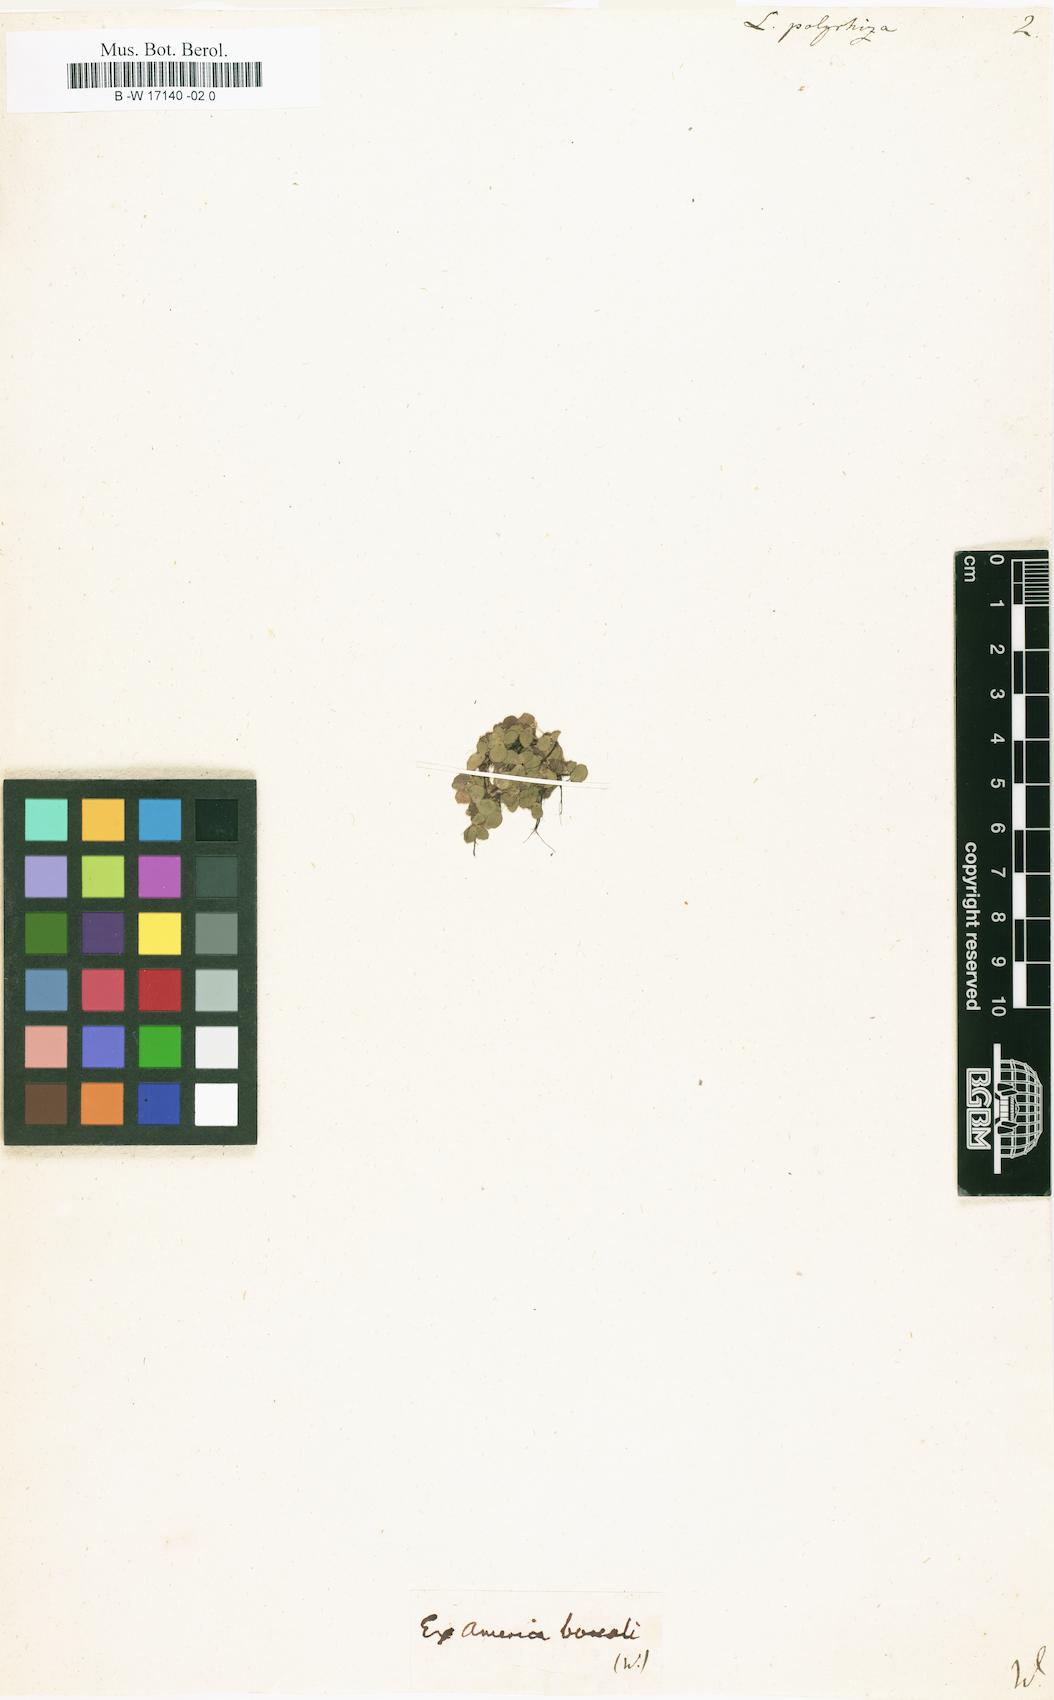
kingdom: Plantae
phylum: Tracheophyta
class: Liliopsida
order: Alismatales
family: Araceae
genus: Spirodela
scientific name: Spirodela polyrhiza
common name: Great duckweed
